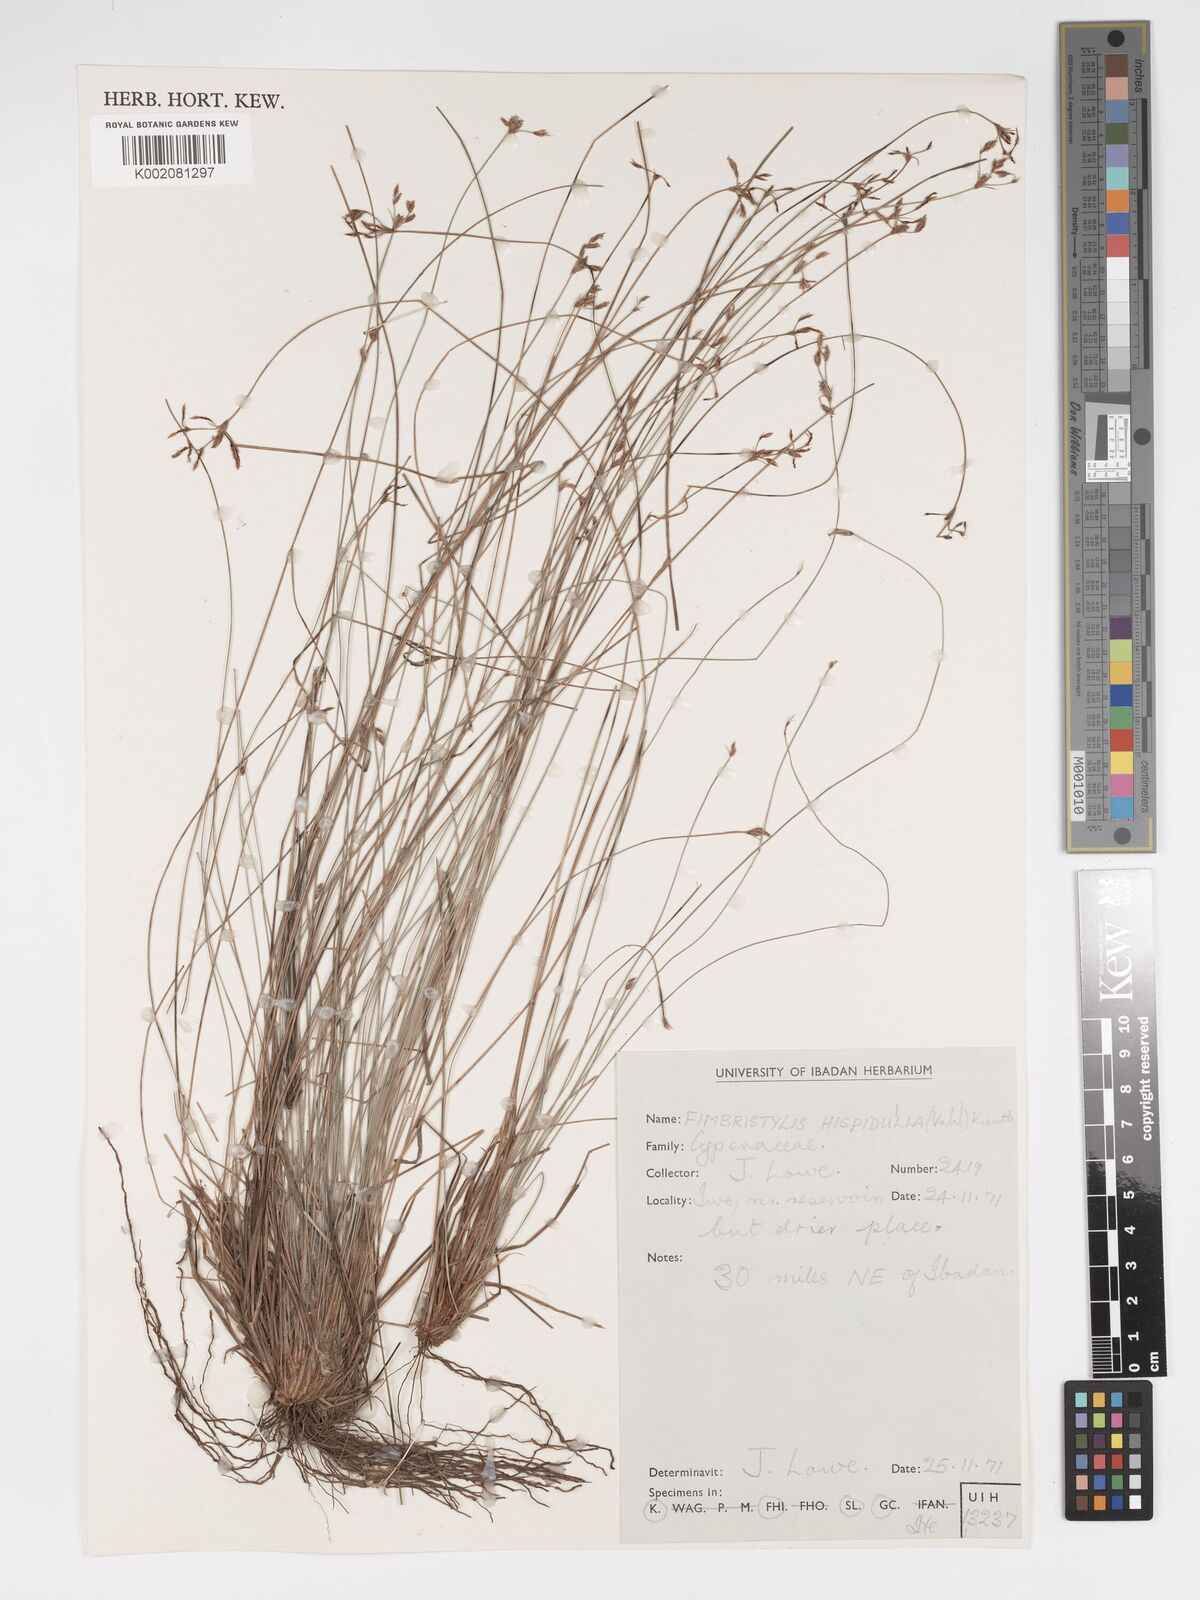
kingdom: Plantae
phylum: Tracheophyta
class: Liliopsida
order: Poales
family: Cyperaceae
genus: Bulbostylis
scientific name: Bulbostylis hispidula
